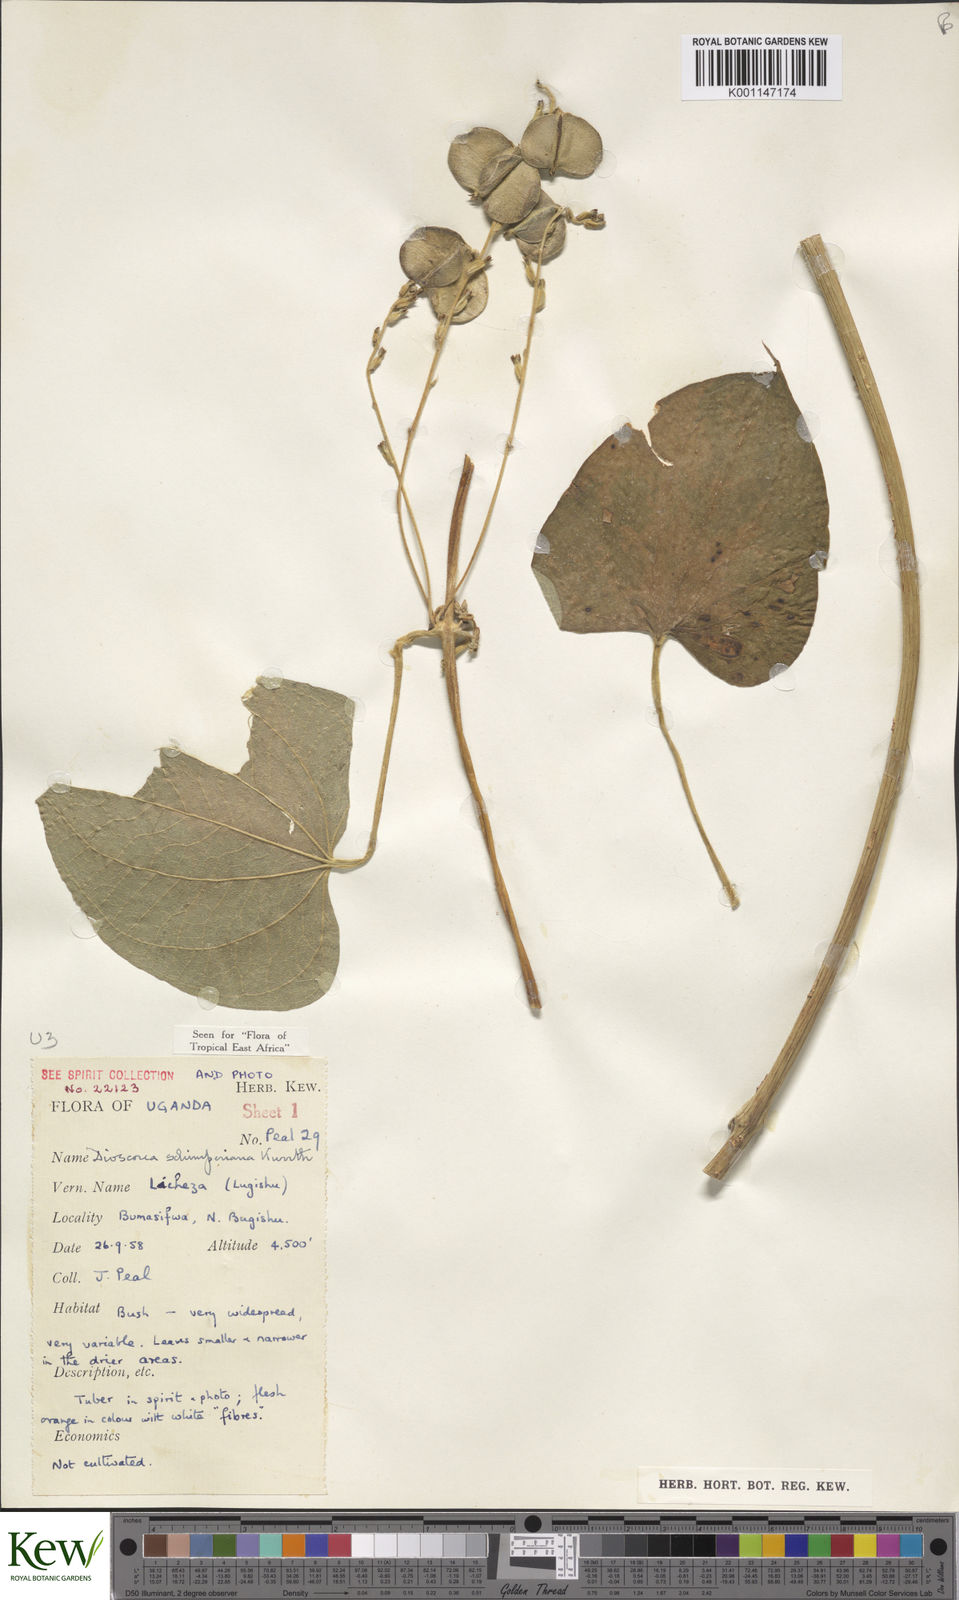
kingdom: Plantae
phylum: Tracheophyta
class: Liliopsida
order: Dioscoreales
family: Dioscoreaceae
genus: Dioscorea
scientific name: Dioscorea schimperiana
